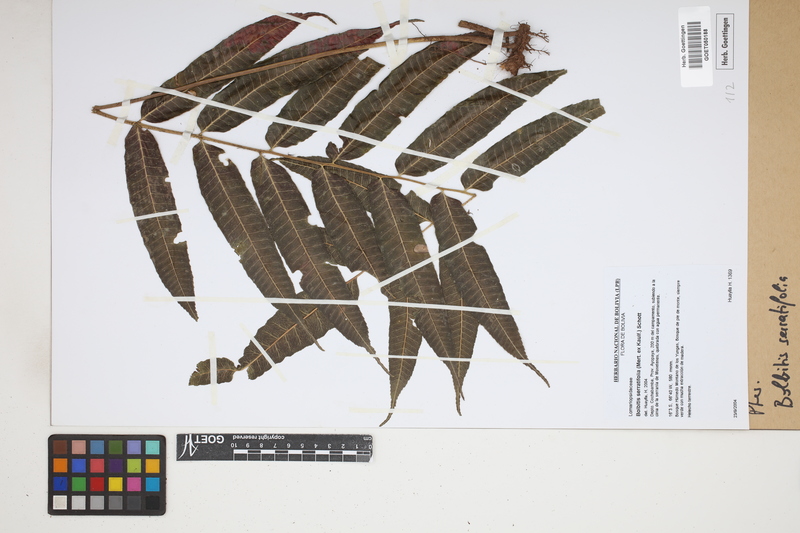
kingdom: Plantae
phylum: Tracheophyta
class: Polypodiopsida
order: Polypodiales
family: Dryopteridaceae
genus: Bolbitis
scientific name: Bolbitis serratifolia
